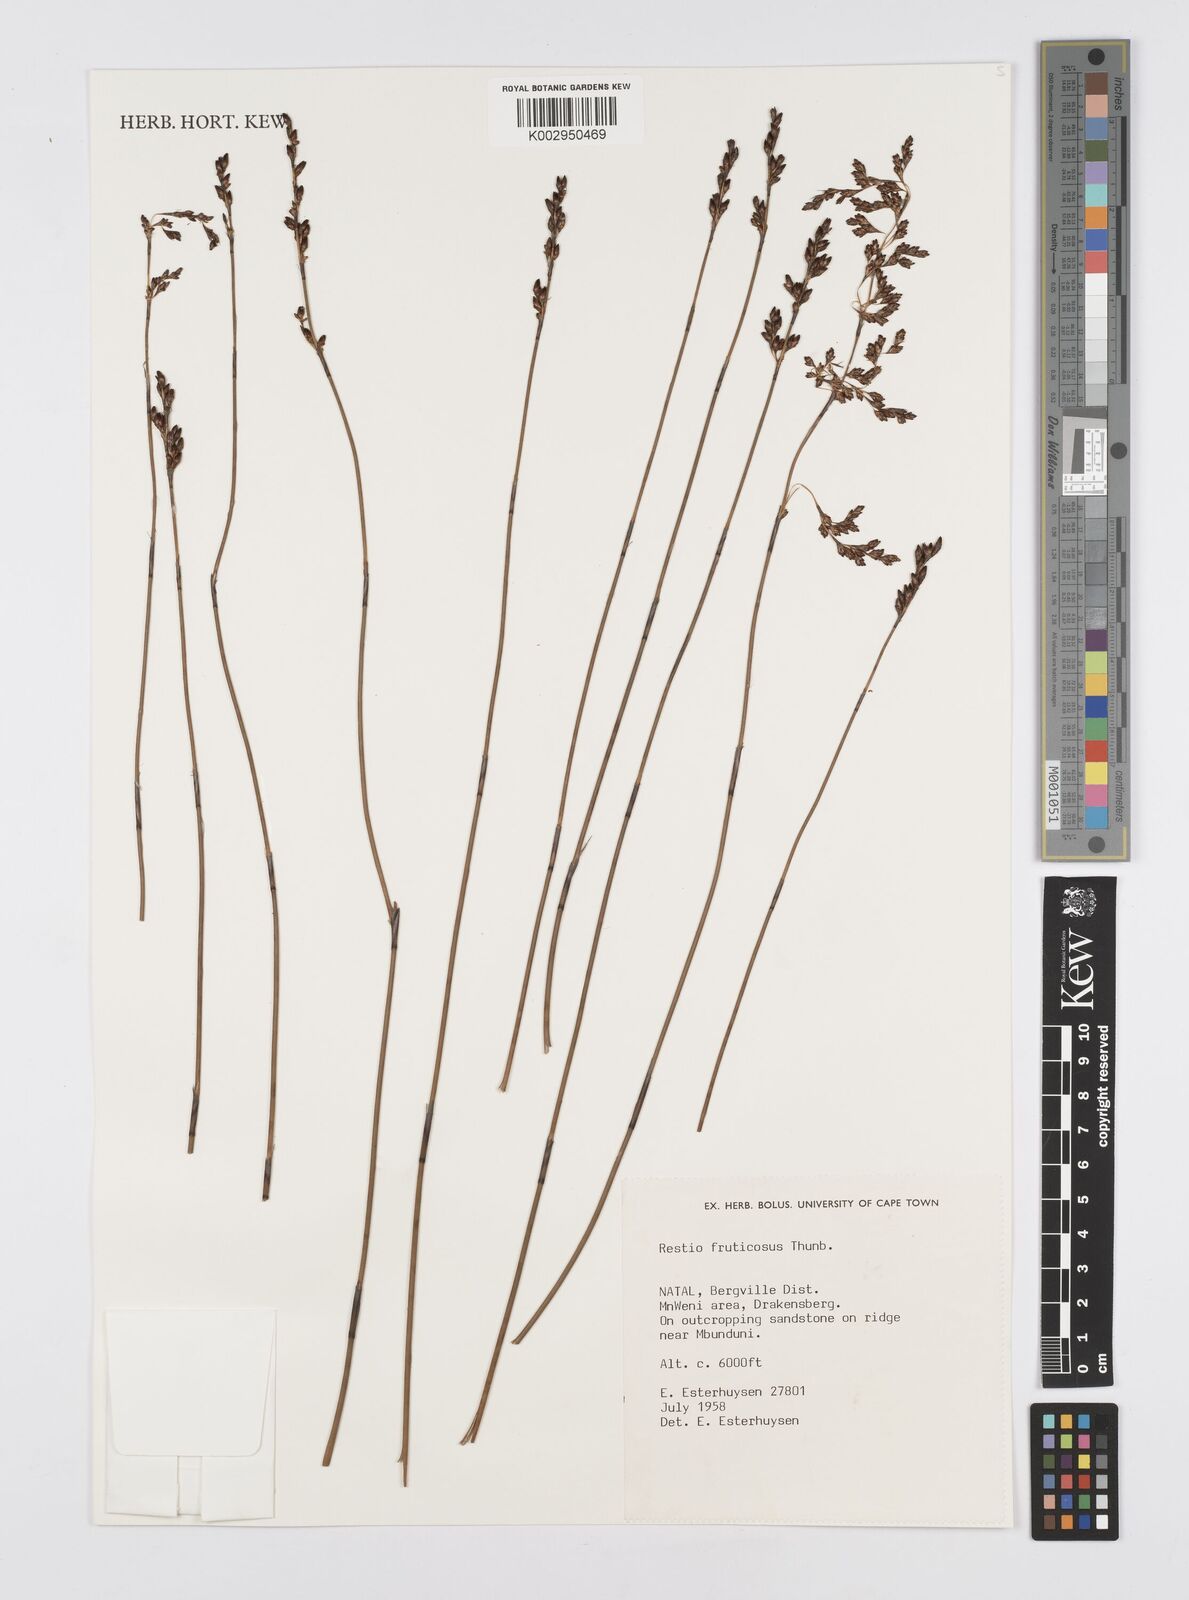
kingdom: Plantae
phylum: Tracheophyta
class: Liliopsida
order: Poales
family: Restionaceae
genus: Rhodocoma
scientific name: Rhodocoma fruticosa
